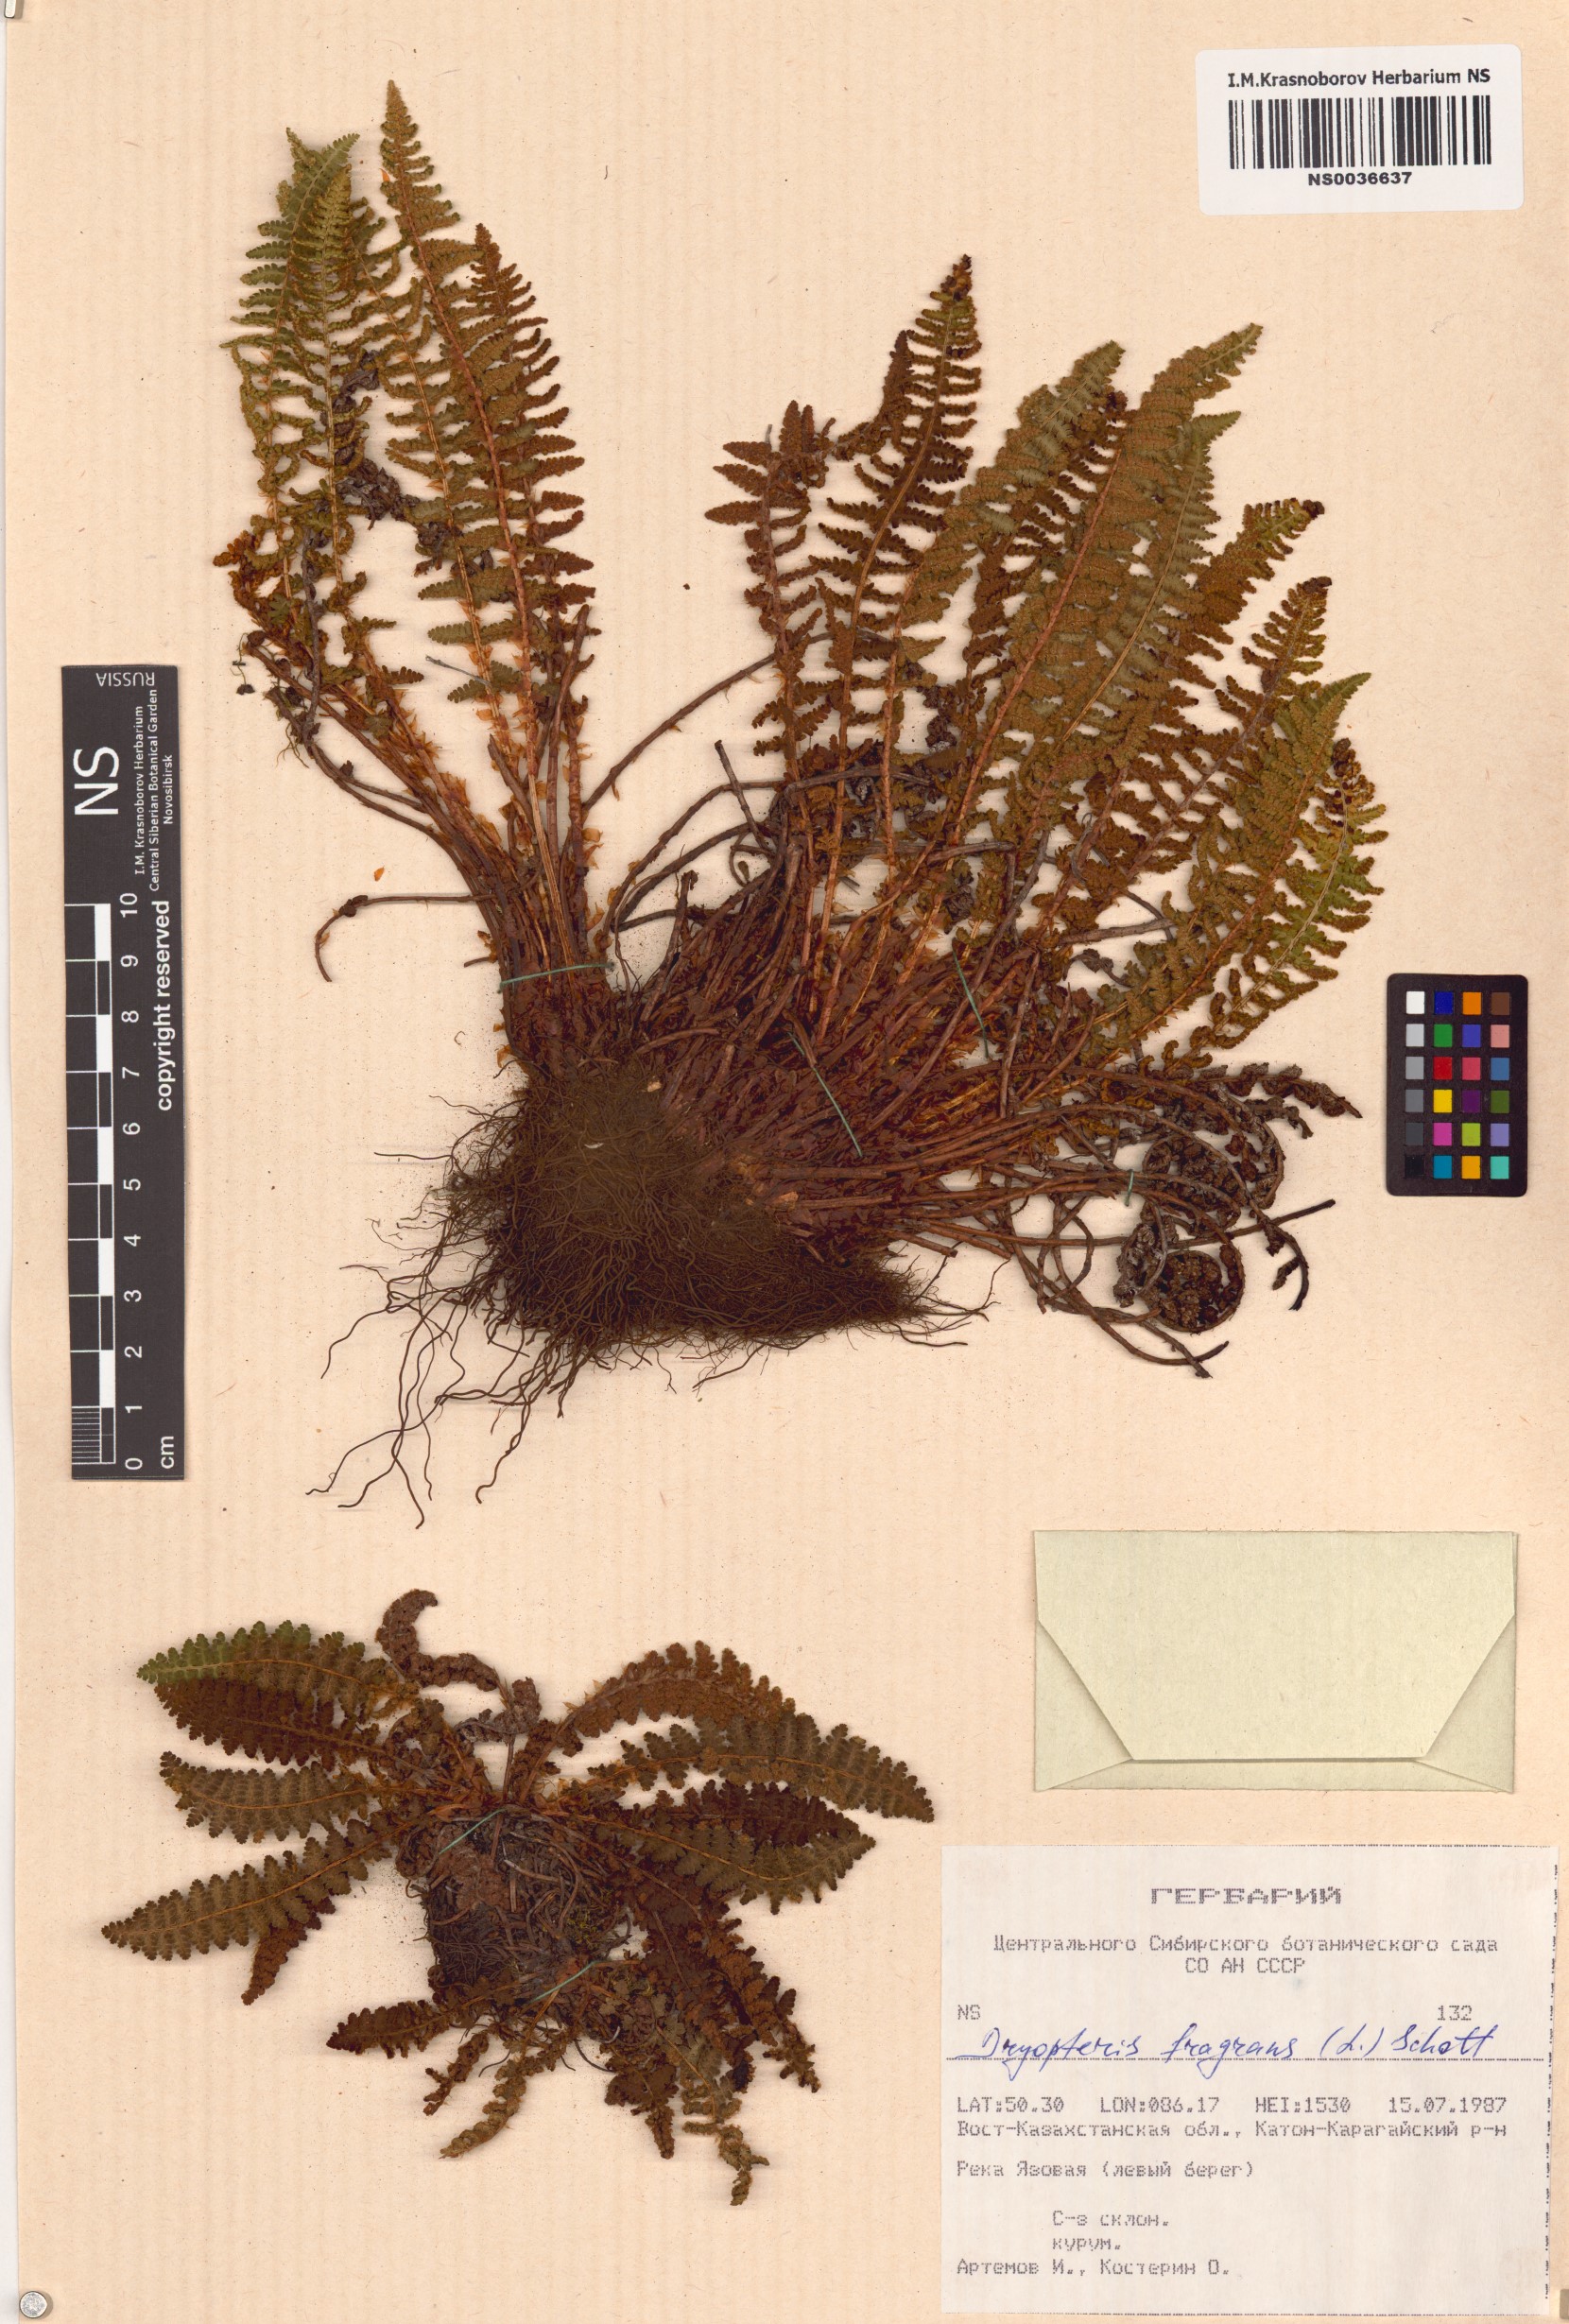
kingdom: Plantae
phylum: Tracheophyta
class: Polypodiopsida
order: Polypodiales
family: Dryopteridaceae
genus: Dryopteris
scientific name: Dryopteris fragrans
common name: Fragrant wood fern
